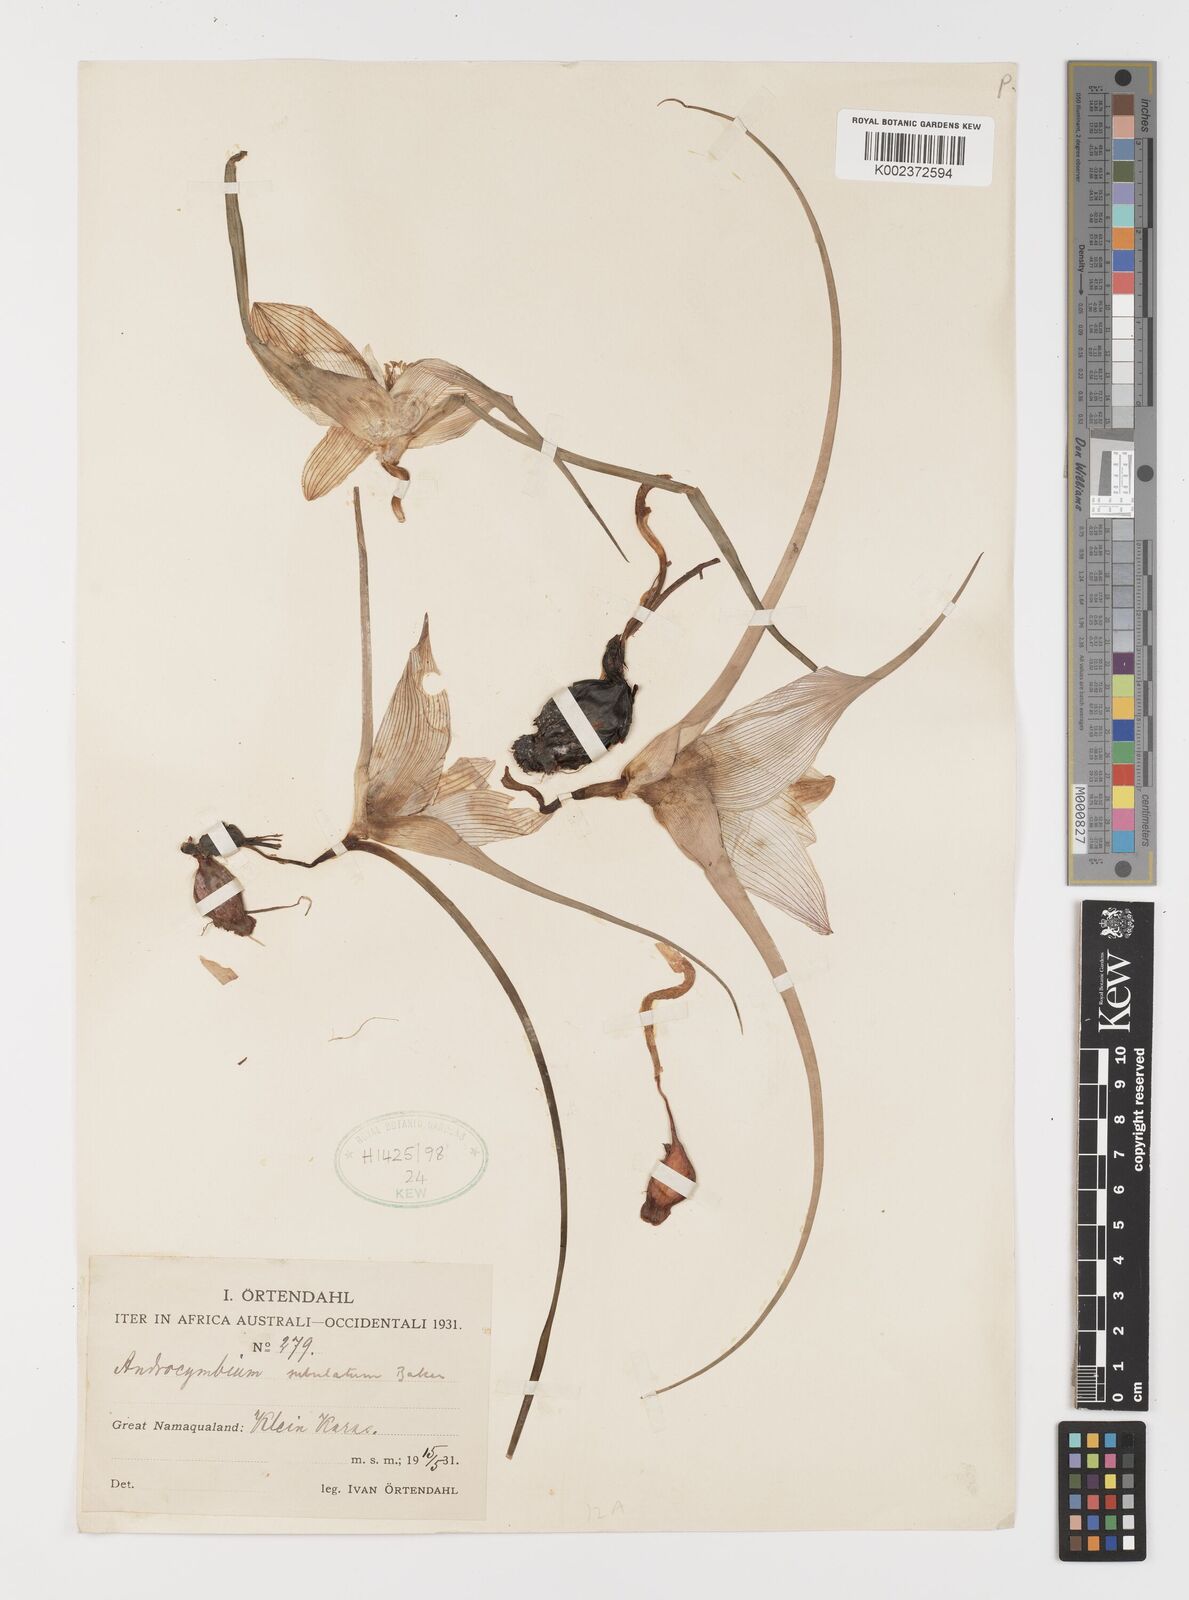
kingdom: Plantae
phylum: Tracheophyta
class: Liliopsida
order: Liliales
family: Colchicaceae
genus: Colchicum
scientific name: Colchicum melanthioides
